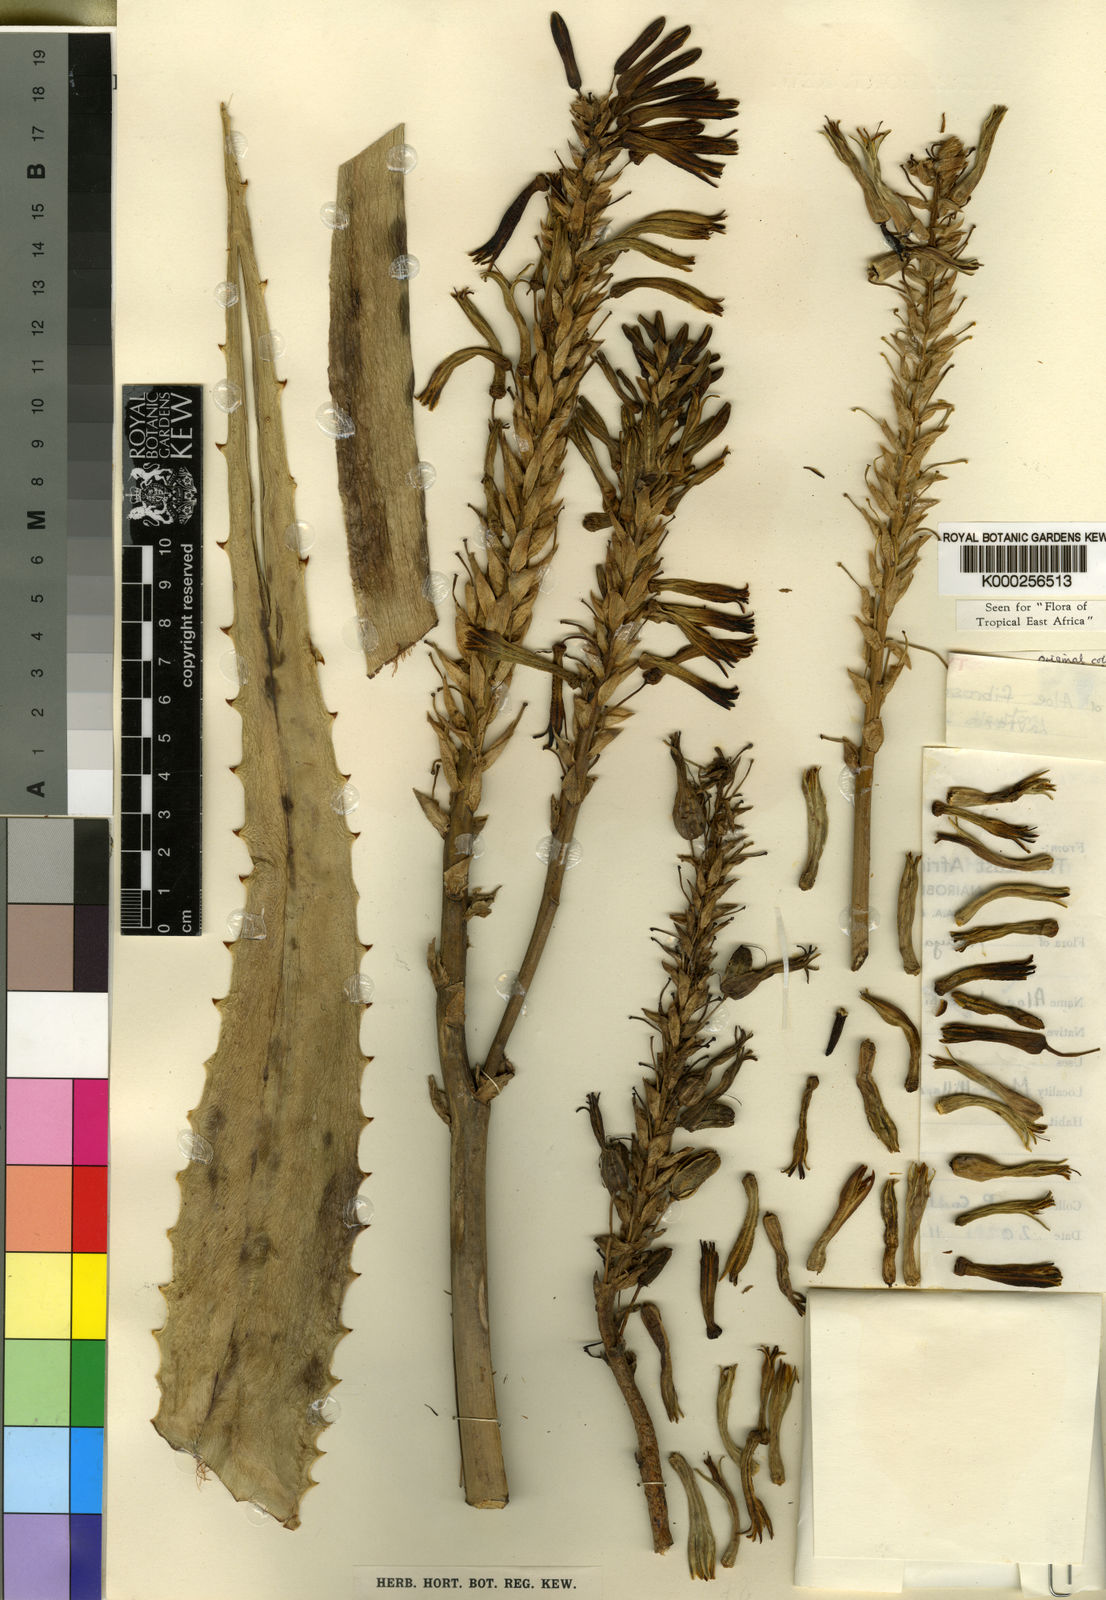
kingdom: Plantae
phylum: Tracheophyta
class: Liliopsida
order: Asparagales
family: Asphodelaceae
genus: Aloe
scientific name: Aloe fibrosa
